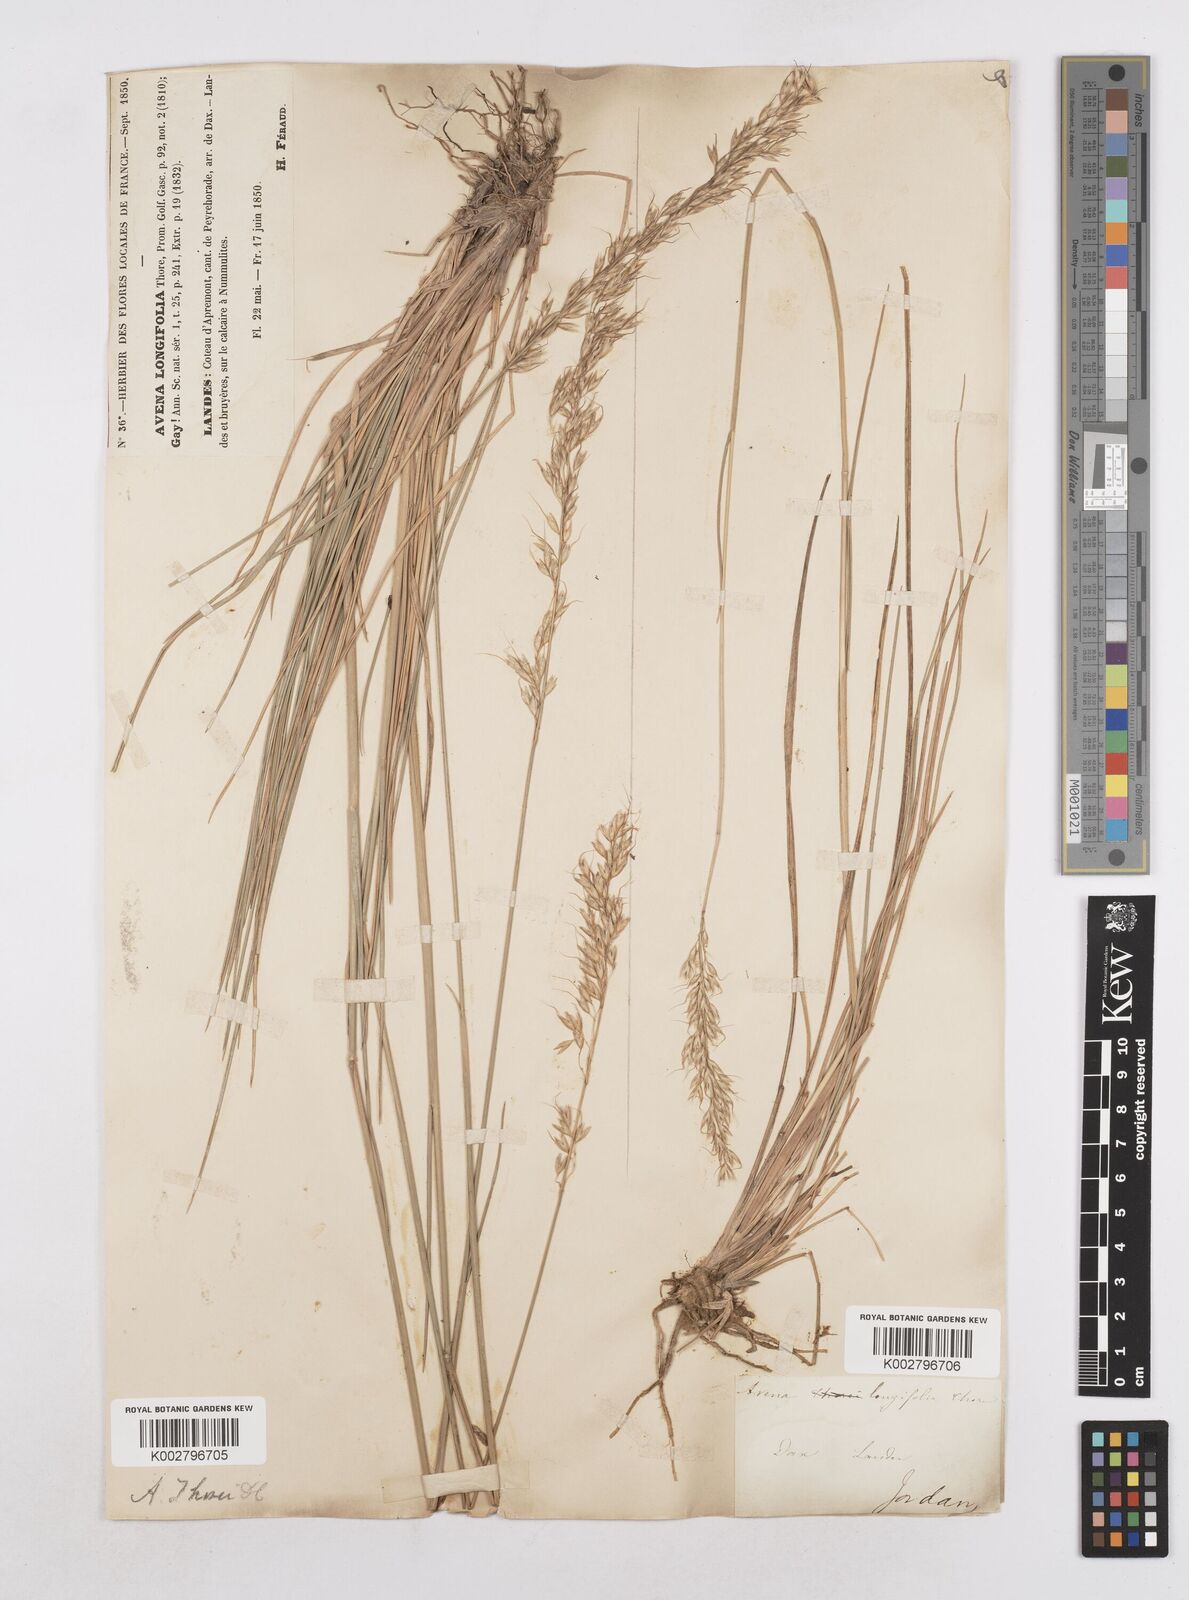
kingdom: Plantae
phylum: Tracheophyta
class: Liliopsida
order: Poales
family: Poaceae
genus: Arrhenatherum
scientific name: Arrhenatherum longifolium
